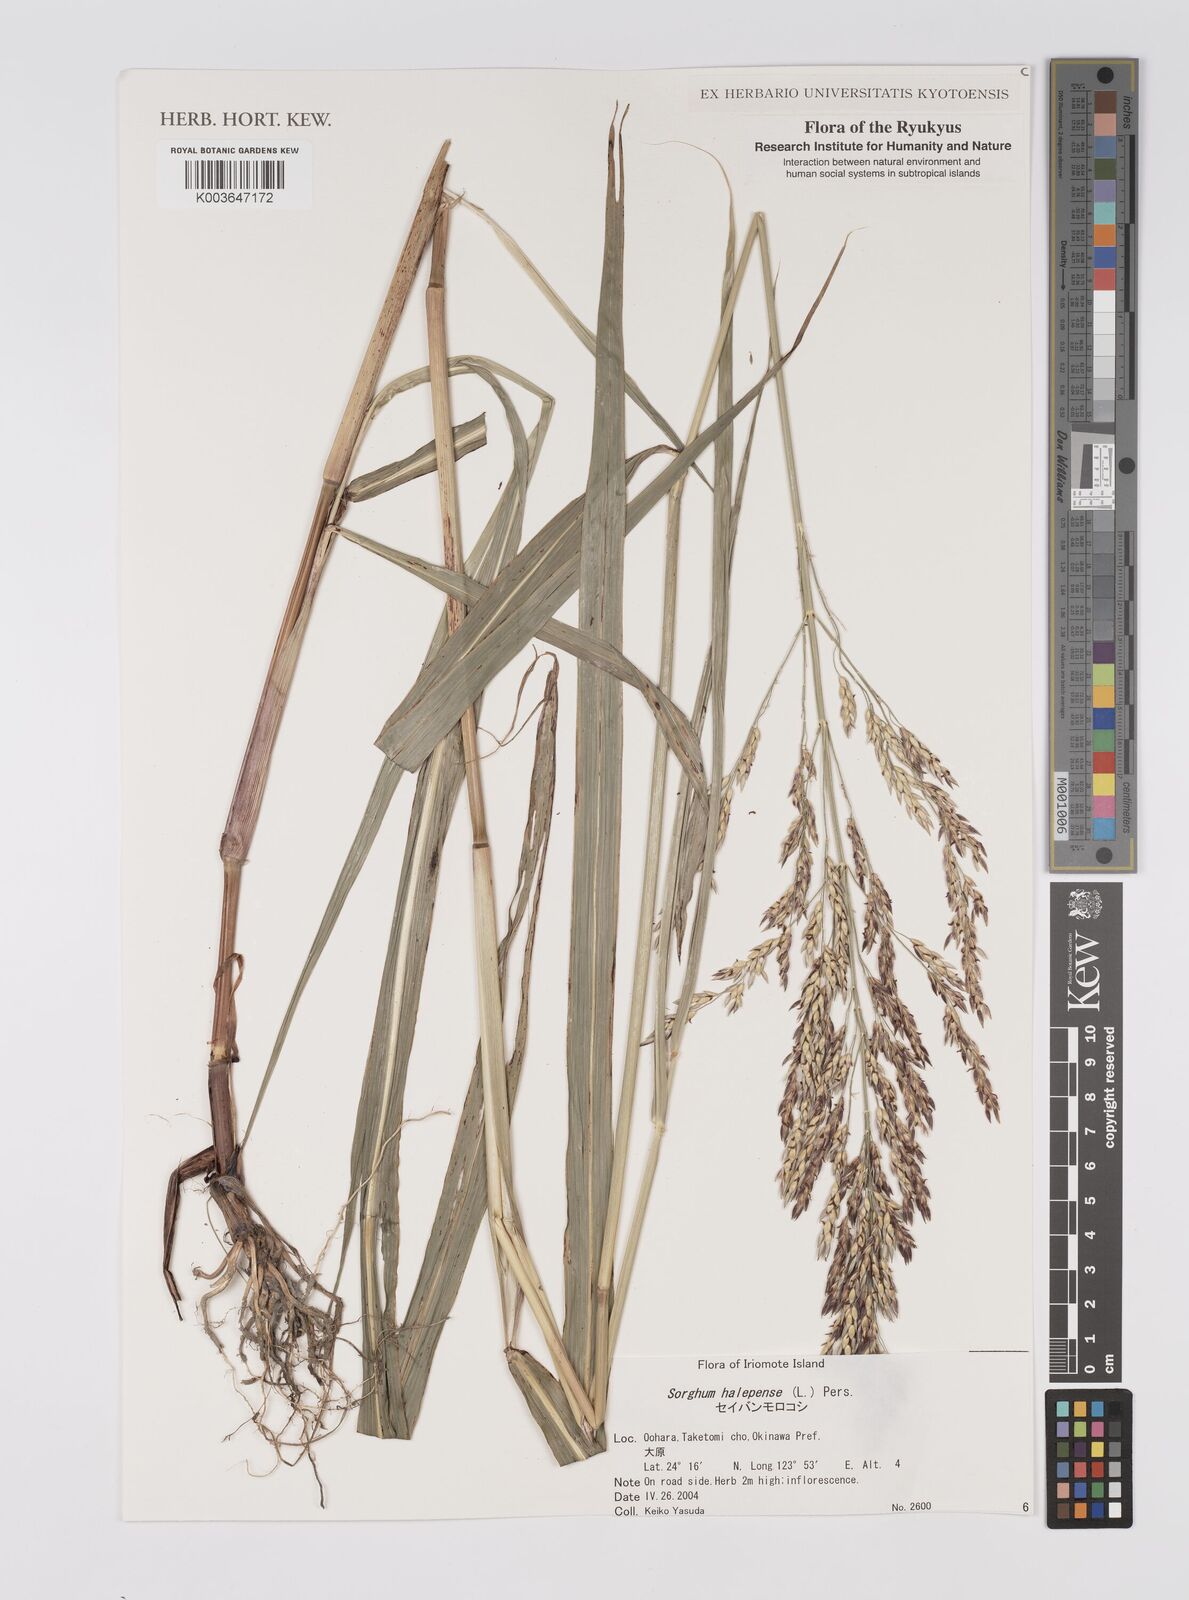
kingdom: Plantae
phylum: Tracheophyta
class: Liliopsida
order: Poales
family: Poaceae
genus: Sorghum
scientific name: Sorghum halepense
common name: Johnson-grass
